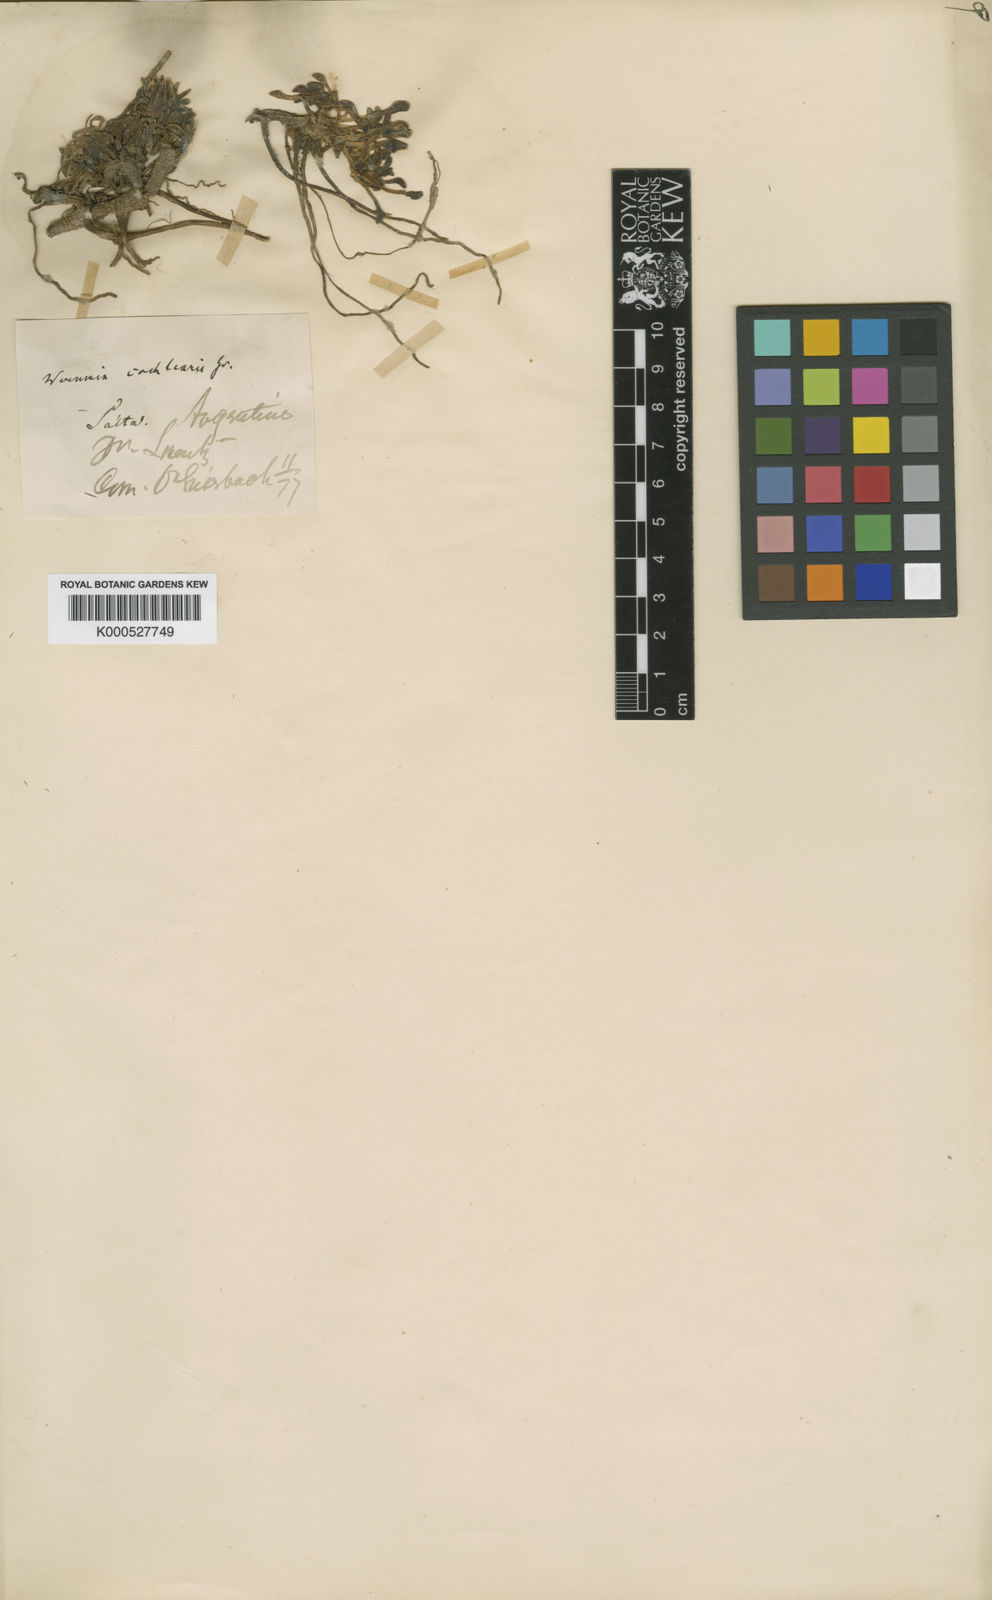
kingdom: Plantae
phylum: Tracheophyta
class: Magnoliopsida
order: Asterales
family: Asteraceae
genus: Rockhausenia
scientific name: Rockhausenia cochlearis
